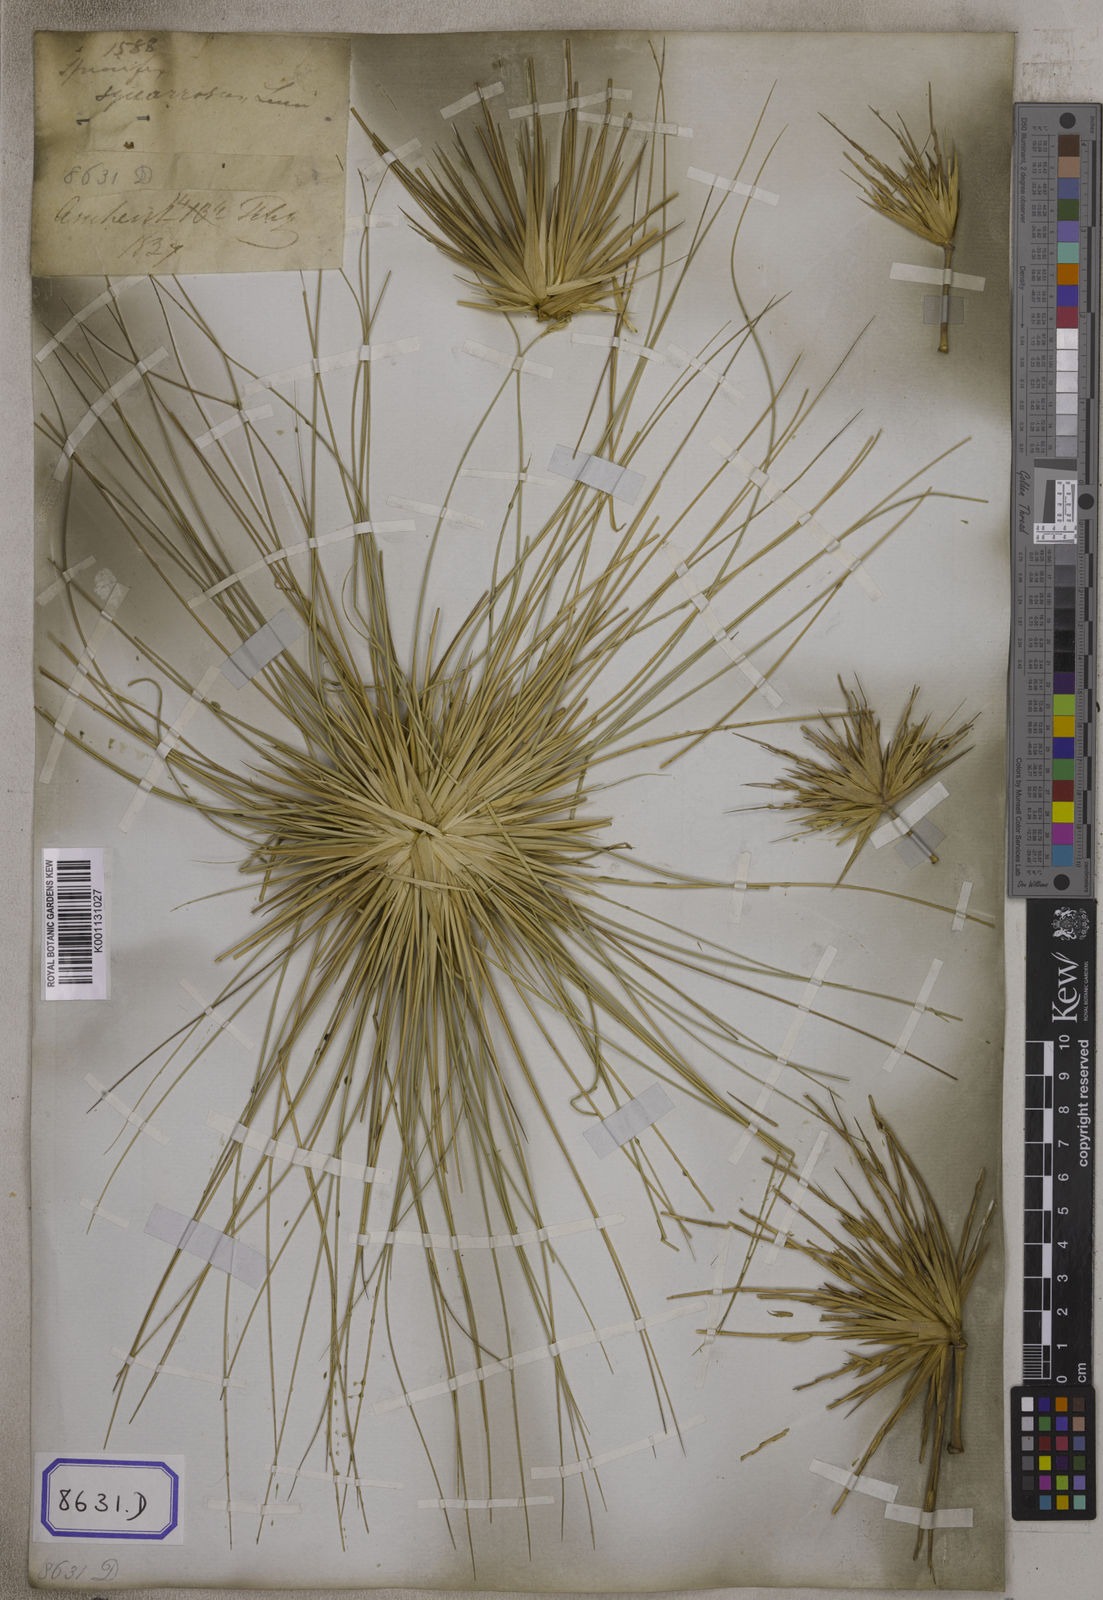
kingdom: Plantae
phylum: Tracheophyta
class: Liliopsida
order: Poales
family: Poaceae
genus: Spinifex
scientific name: Spinifex littoreus
